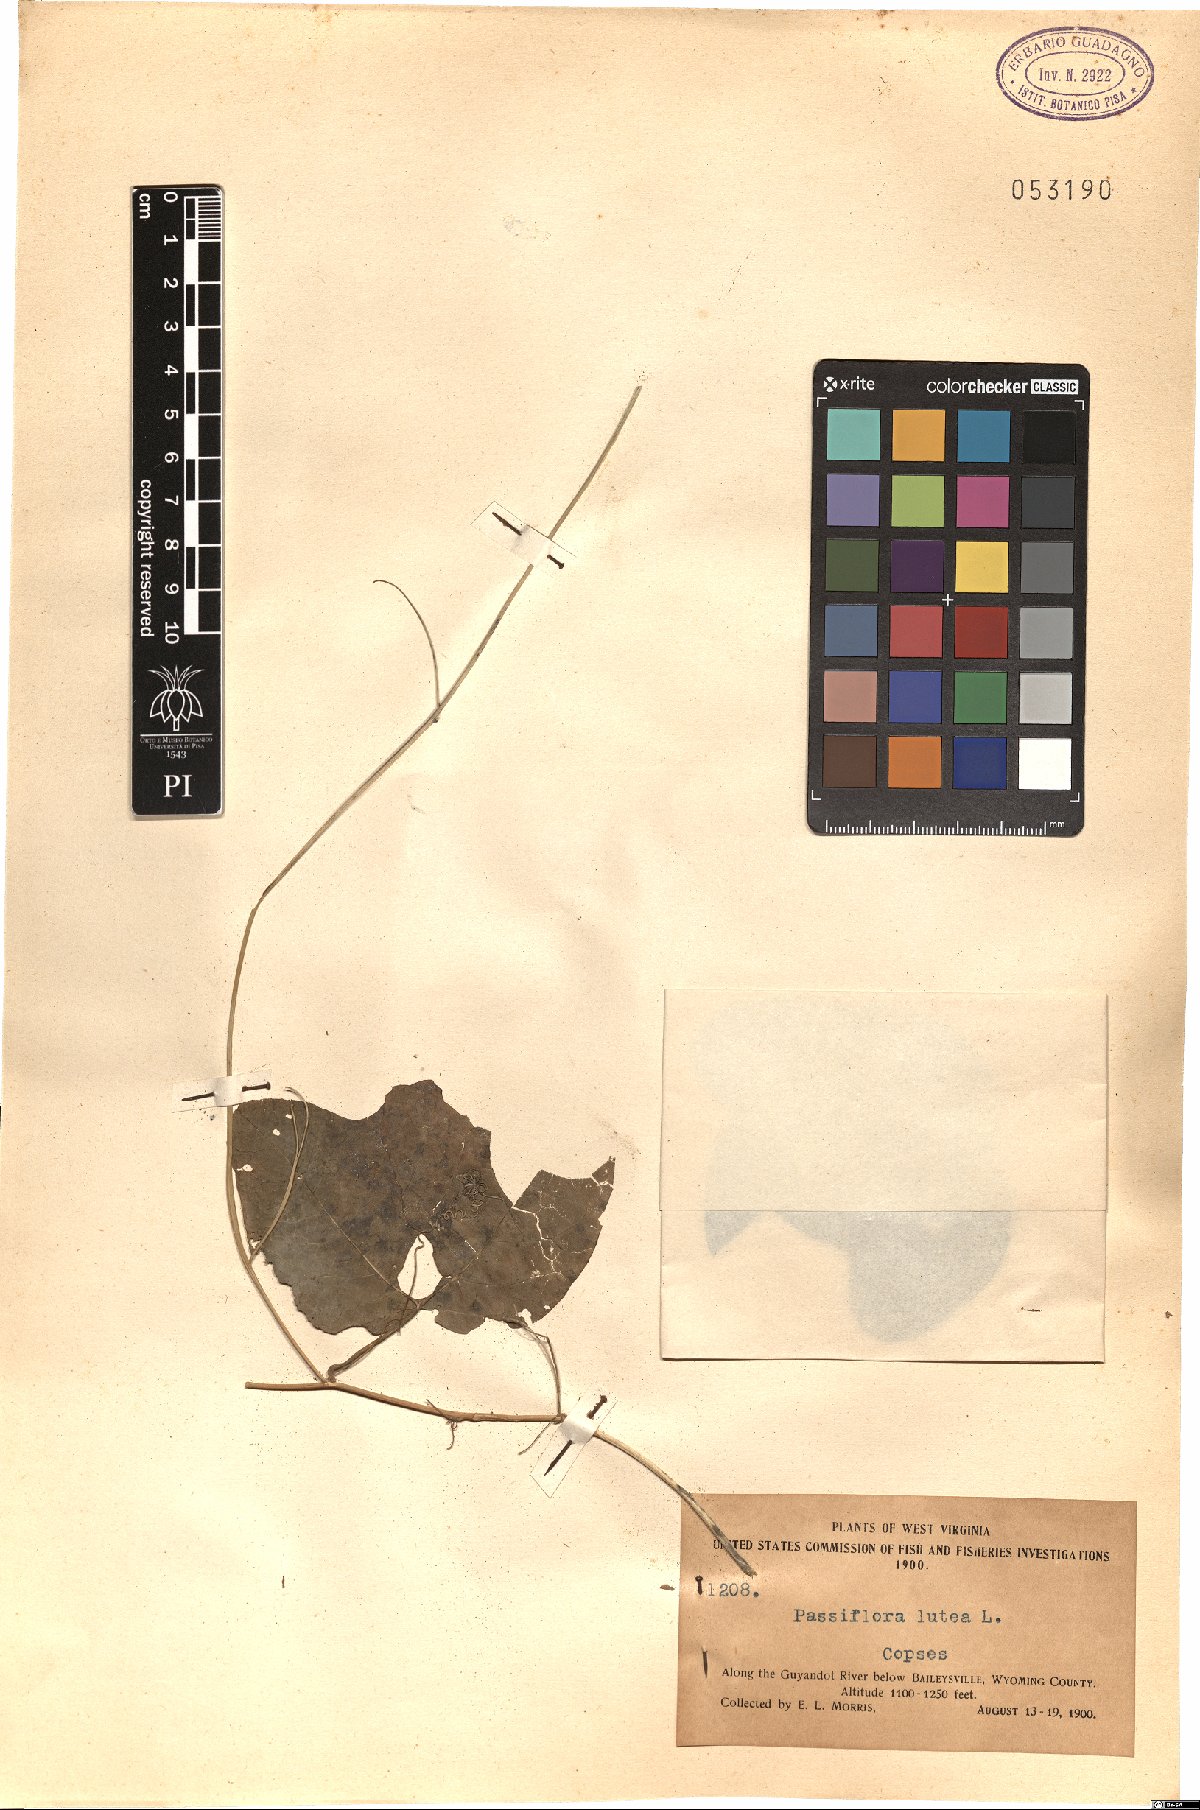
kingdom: Plantae
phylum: Tracheophyta
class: Magnoliopsida
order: Malpighiales
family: Passifloraceae
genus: Passiflora
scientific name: Passiflora lutea
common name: Yellow passionflower
